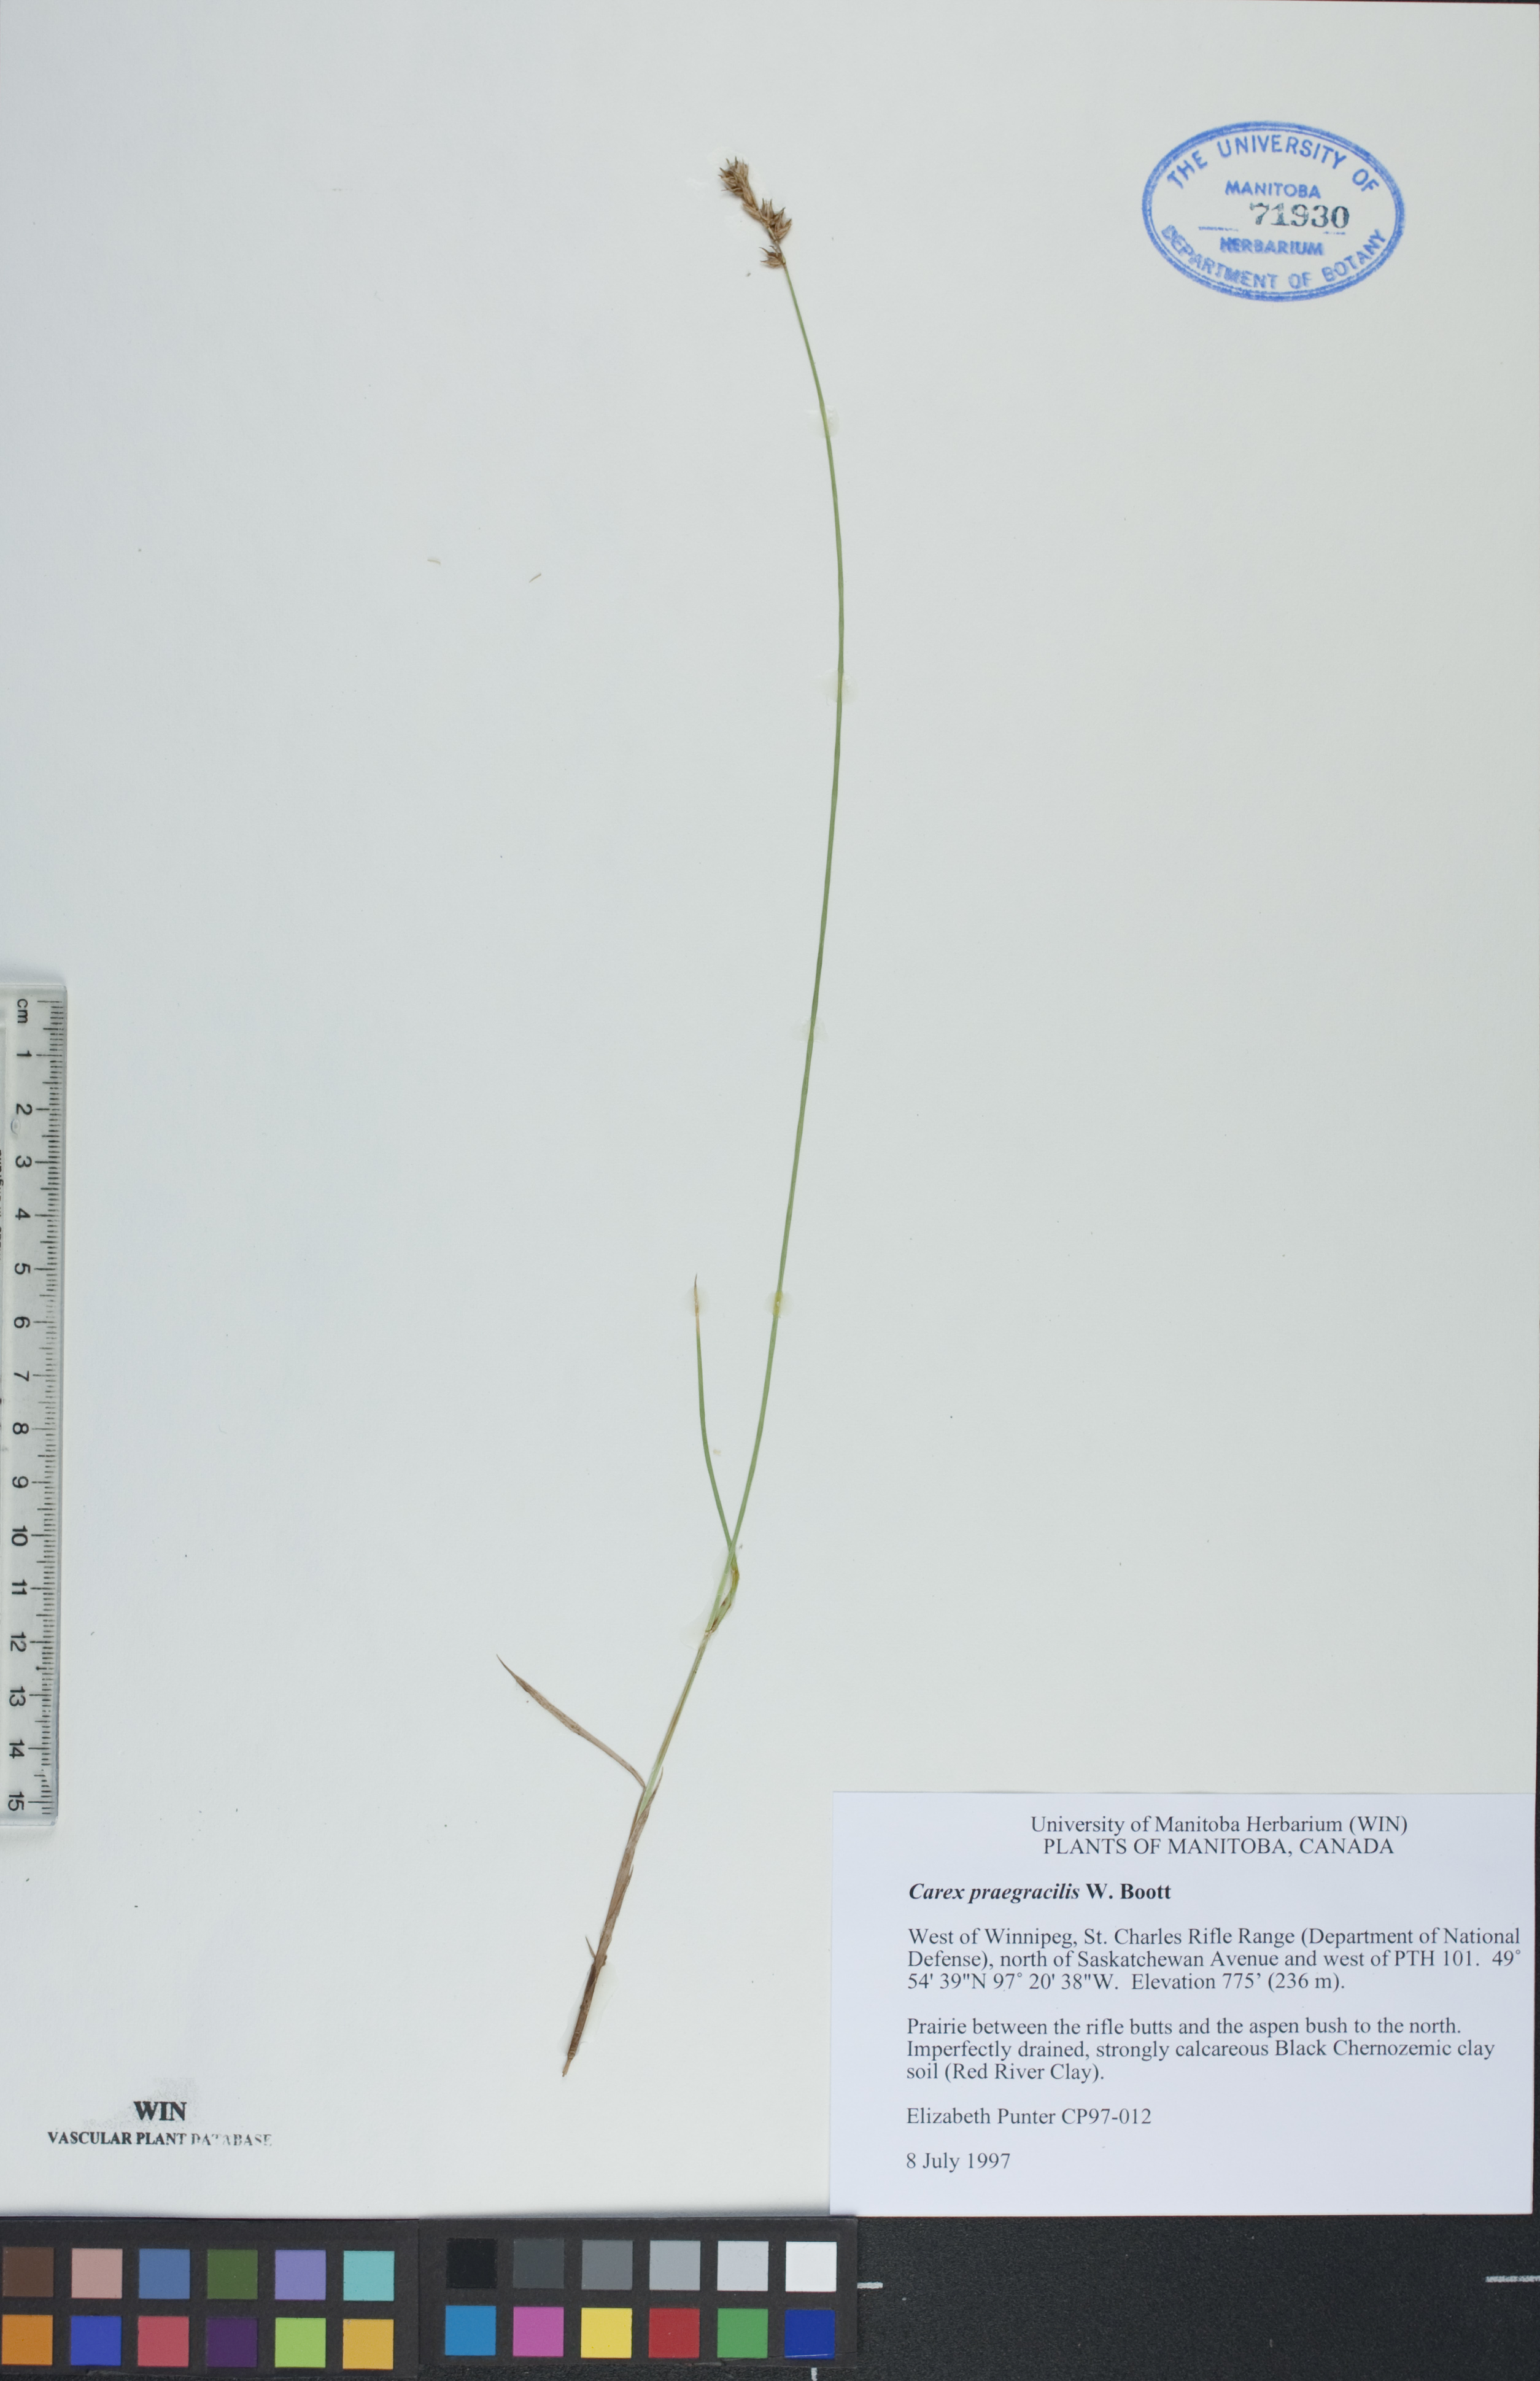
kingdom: Plantae
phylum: Tracheophyta
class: Liliopsida
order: Poales
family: Cyperaceae
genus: Carex
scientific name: Carex praegracilis
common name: Black creeper sedge
